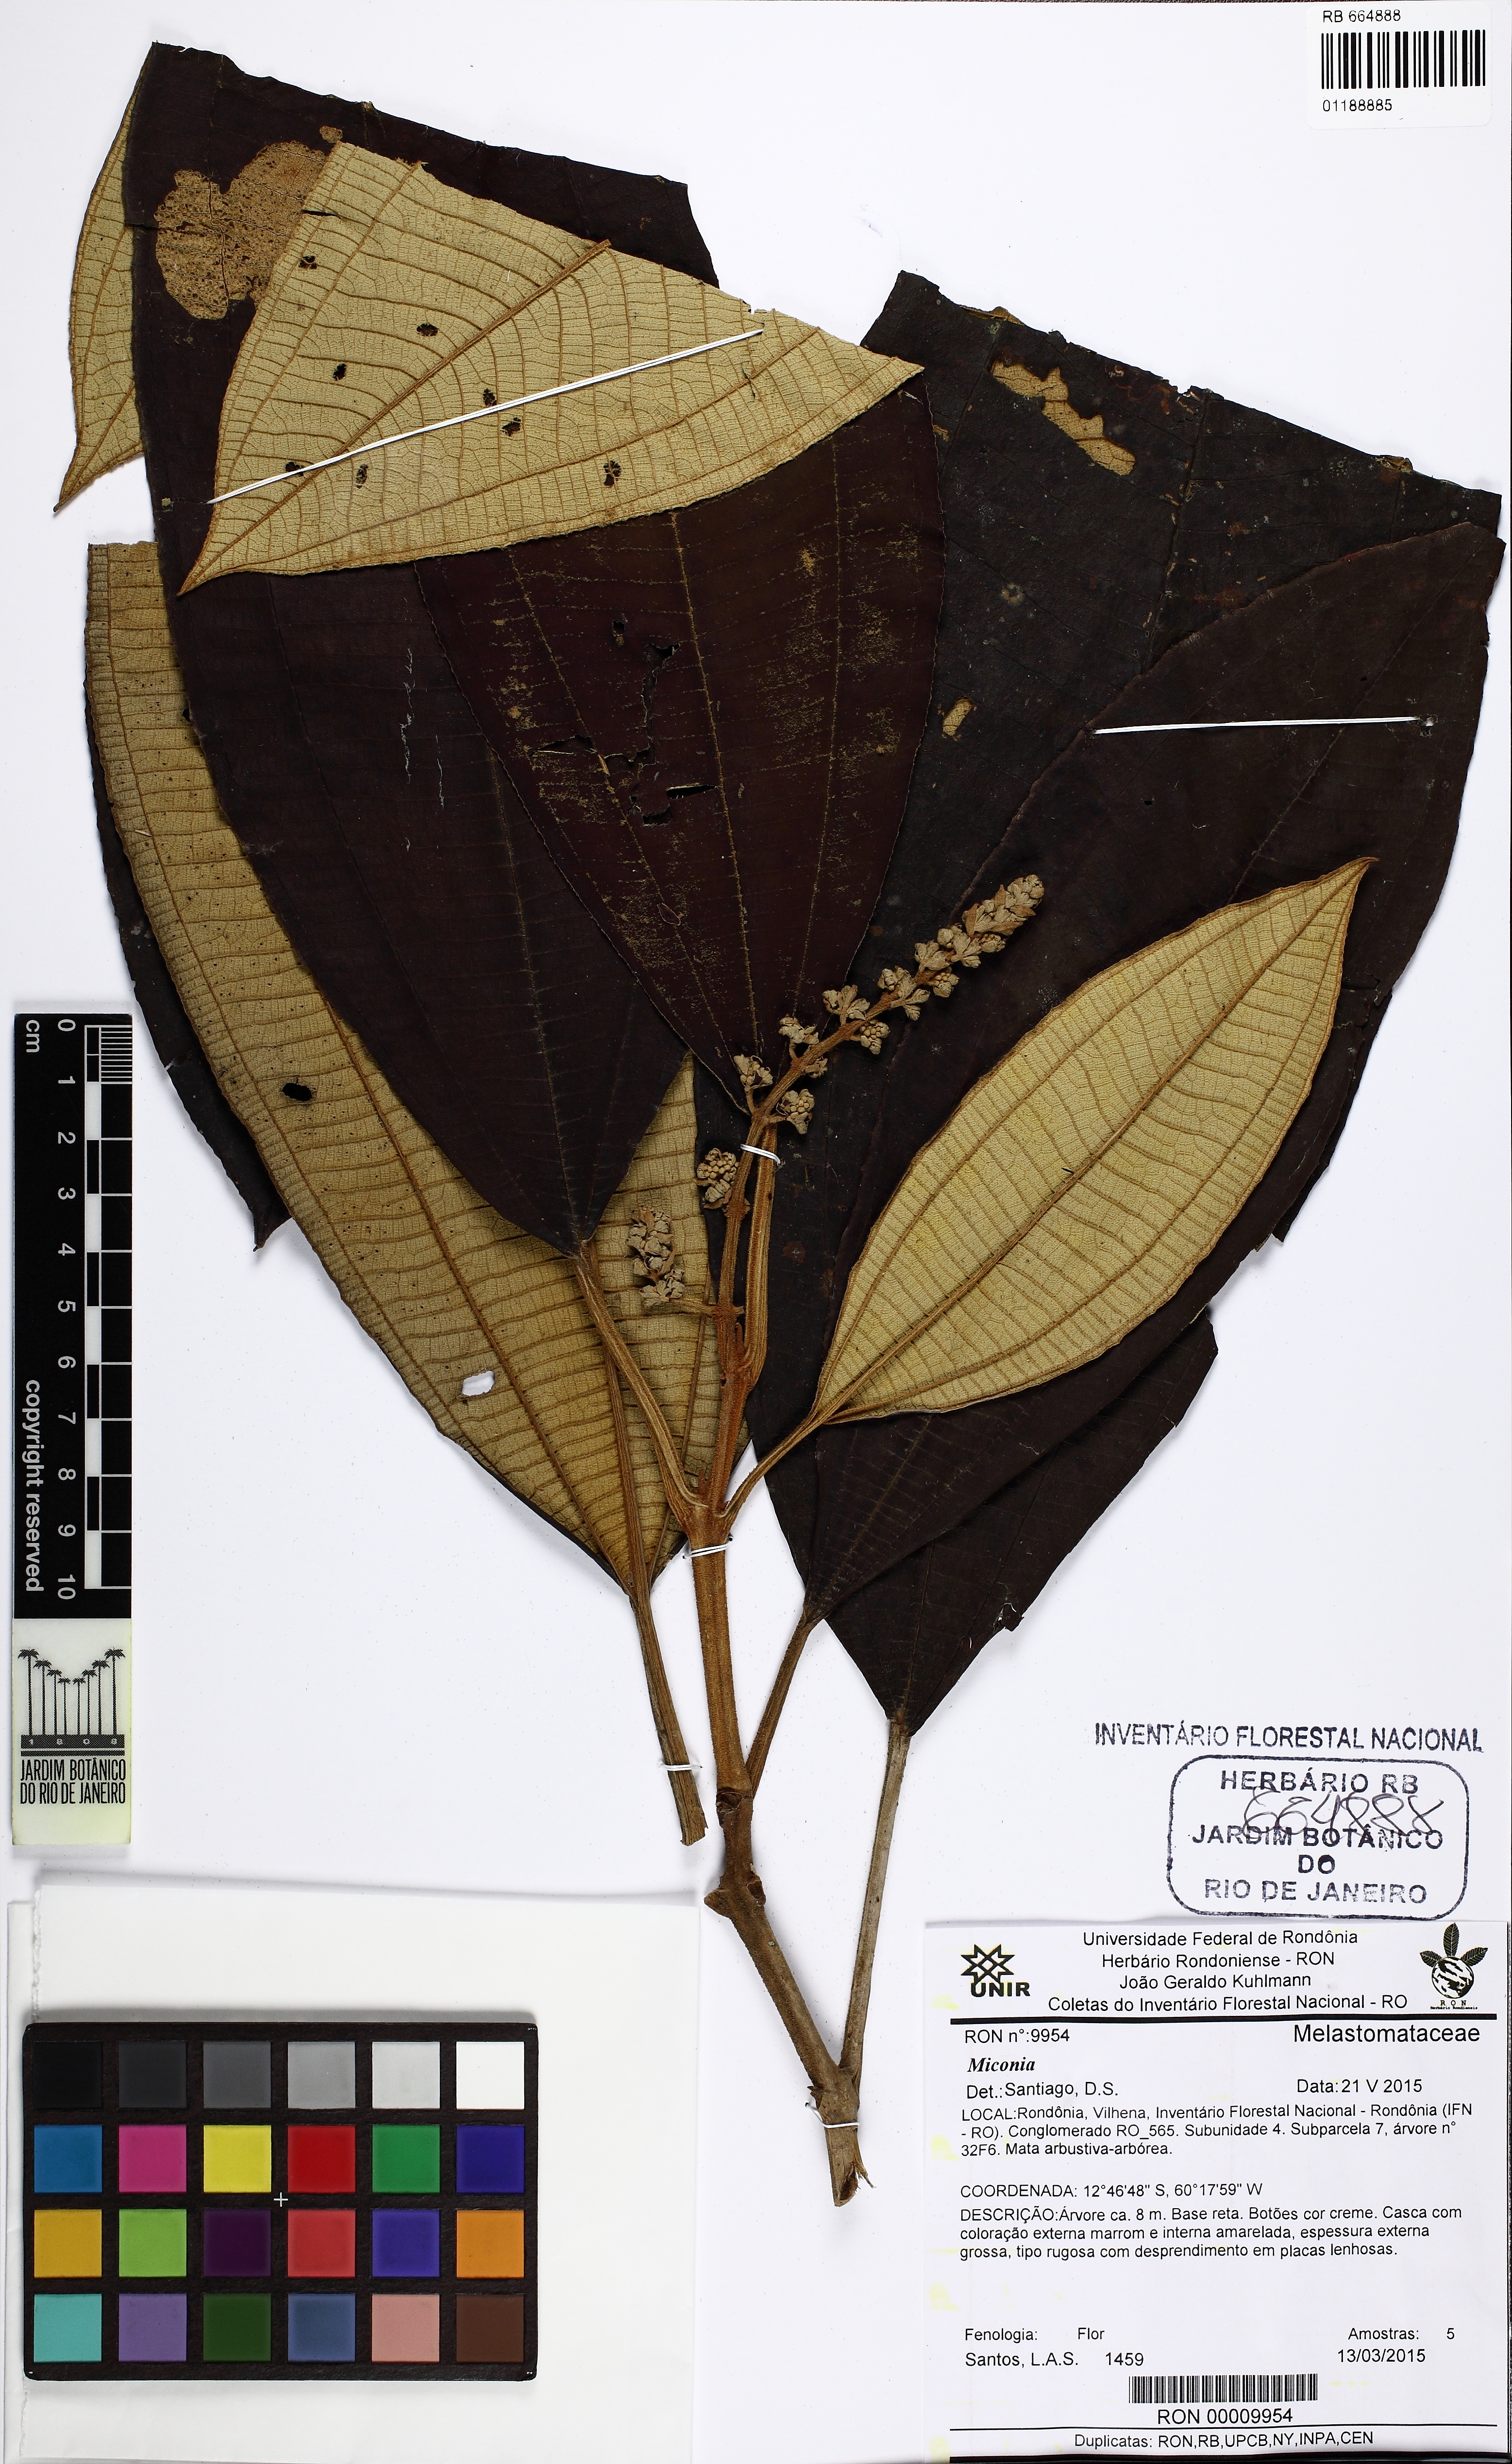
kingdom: Plantae
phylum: Tracheophyta
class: Magnoliopsida
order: Myrtales
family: Melastomataceae
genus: Miconia
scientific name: Miconia
